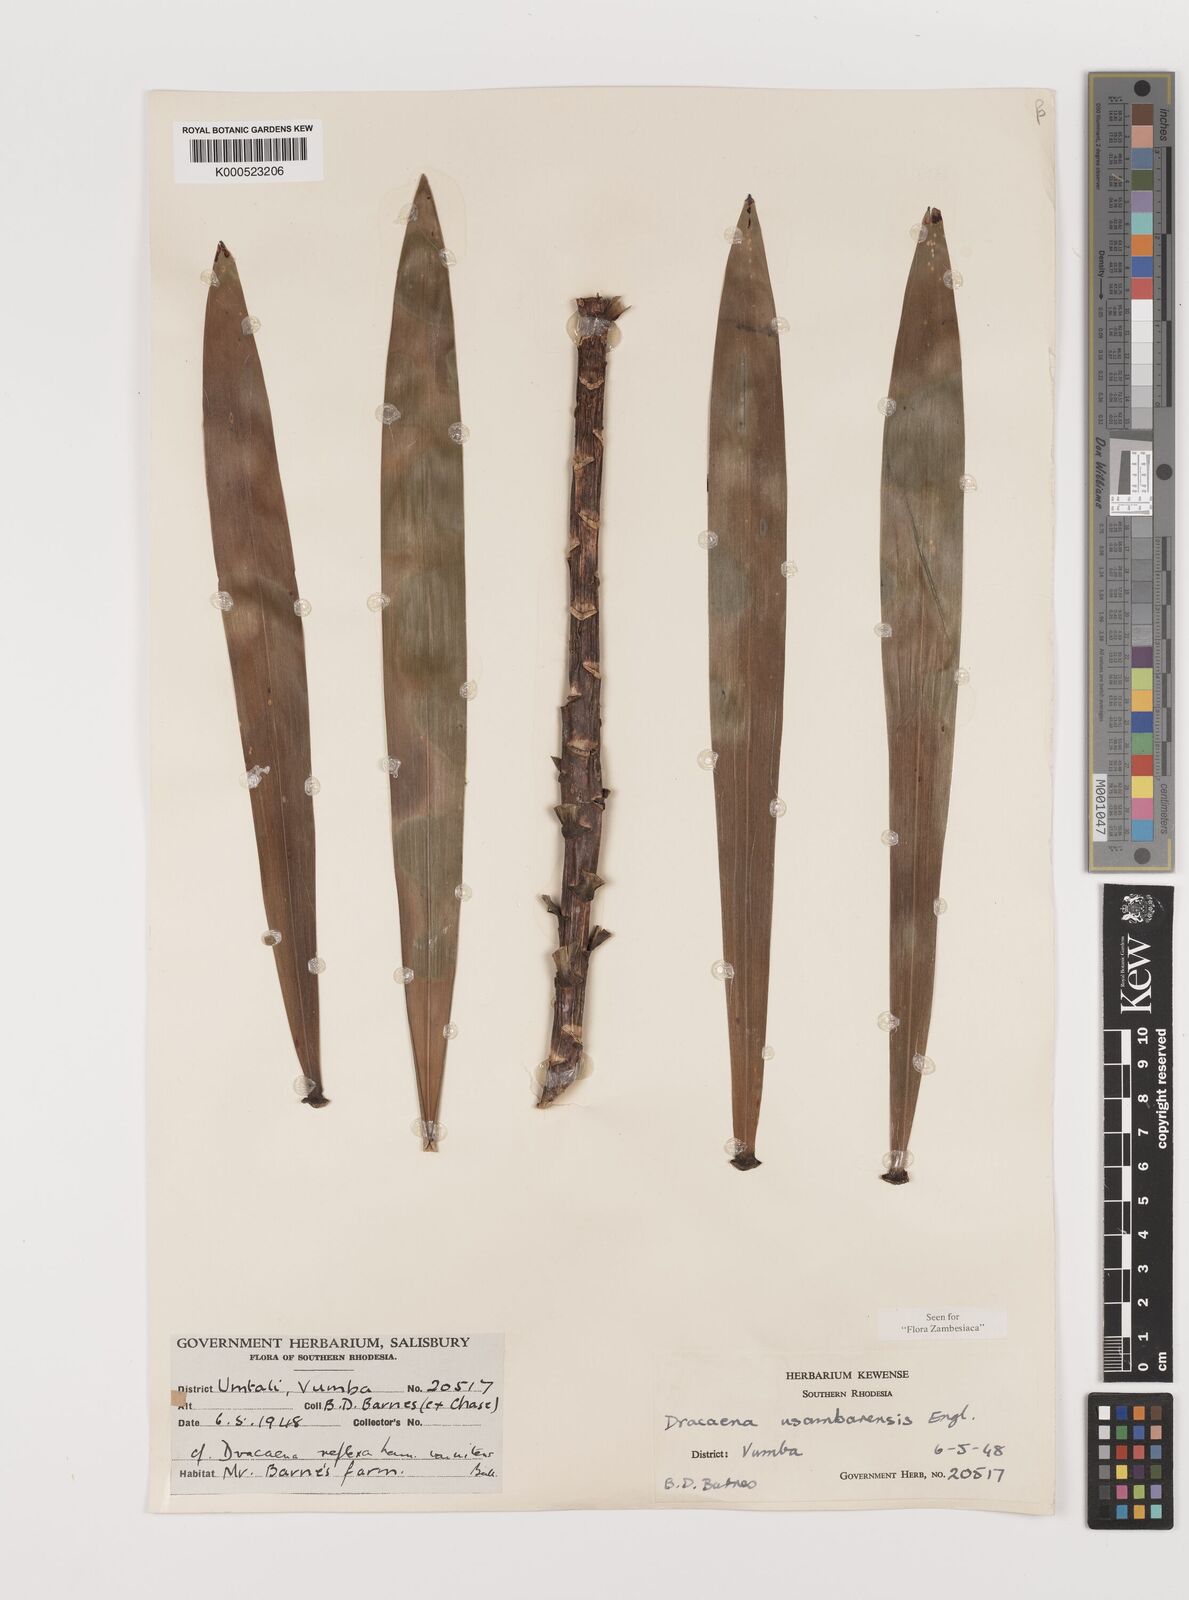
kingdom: Plantae
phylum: Tracheophyta
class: Liliopsida
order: Asparagales
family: Asparagaceae
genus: Dracaena
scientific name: Dracaena usambarensis
